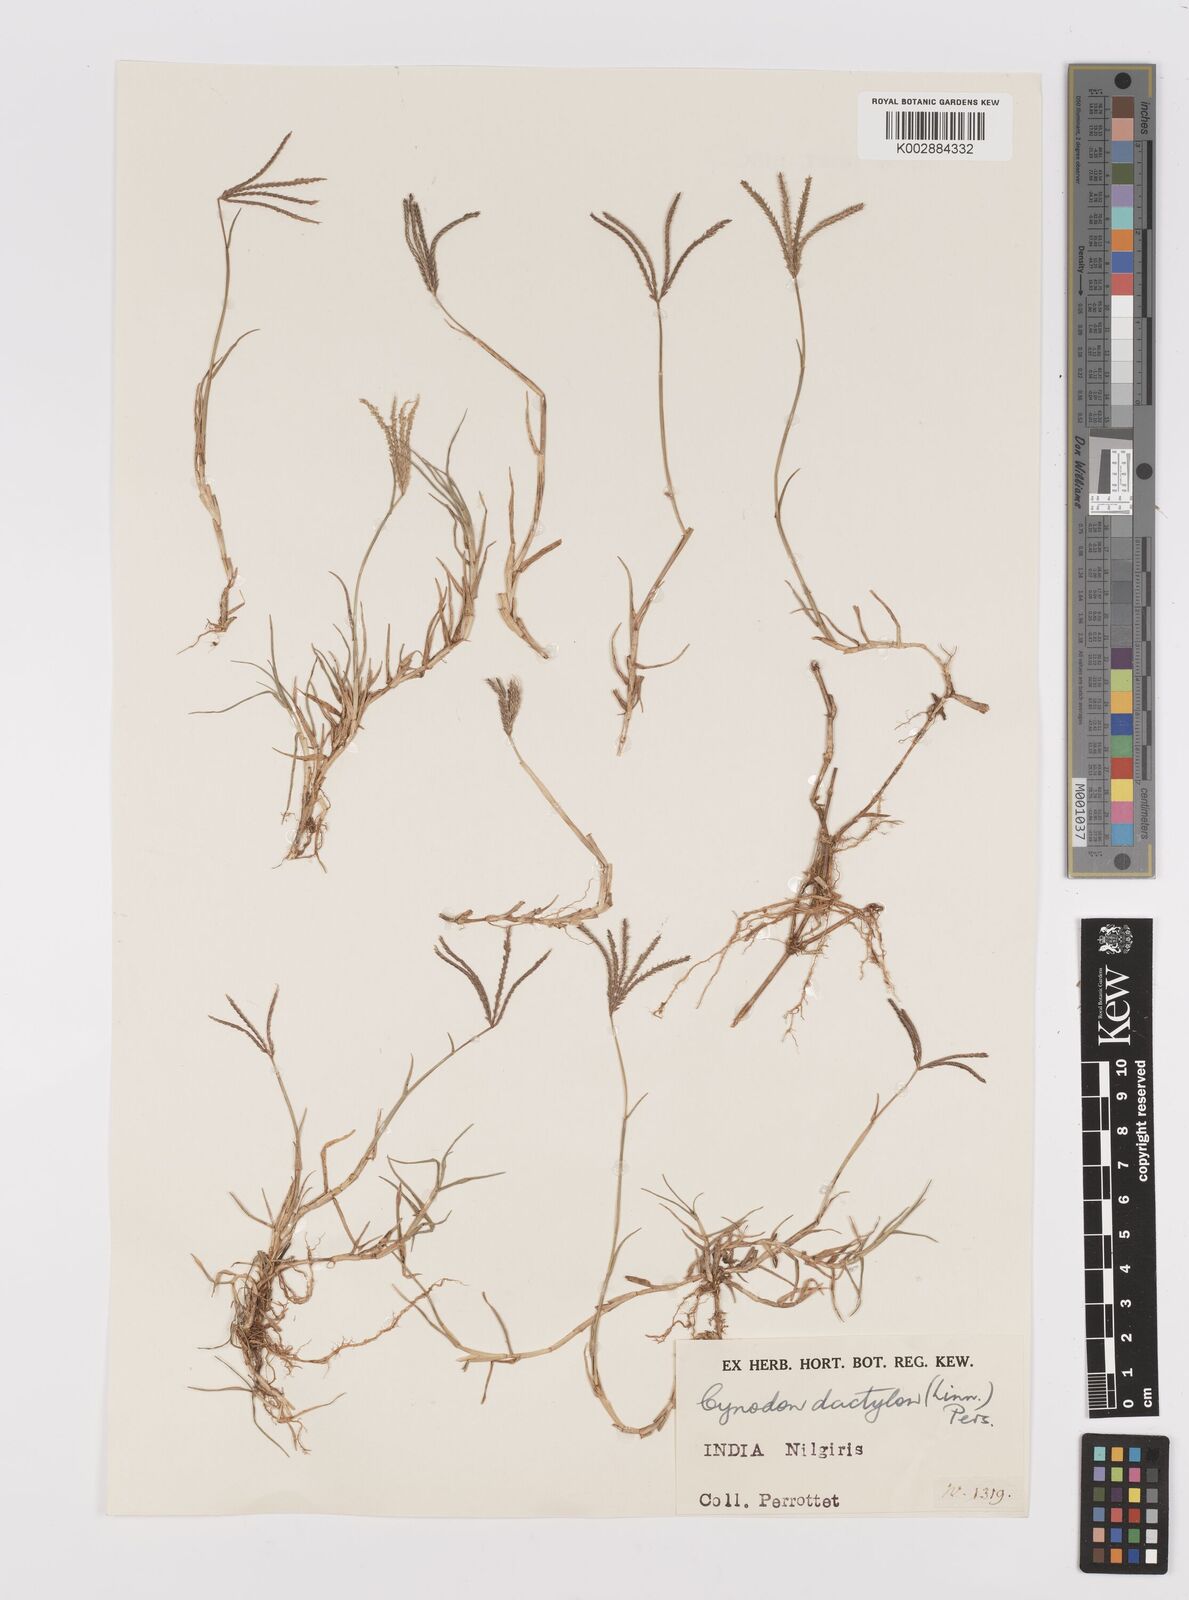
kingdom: Plantae
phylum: Tracheophyta
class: Liliopsida
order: Poales
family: Poaceae
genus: Cynodon
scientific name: Cynodon dactylon
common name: Bermuda grass
